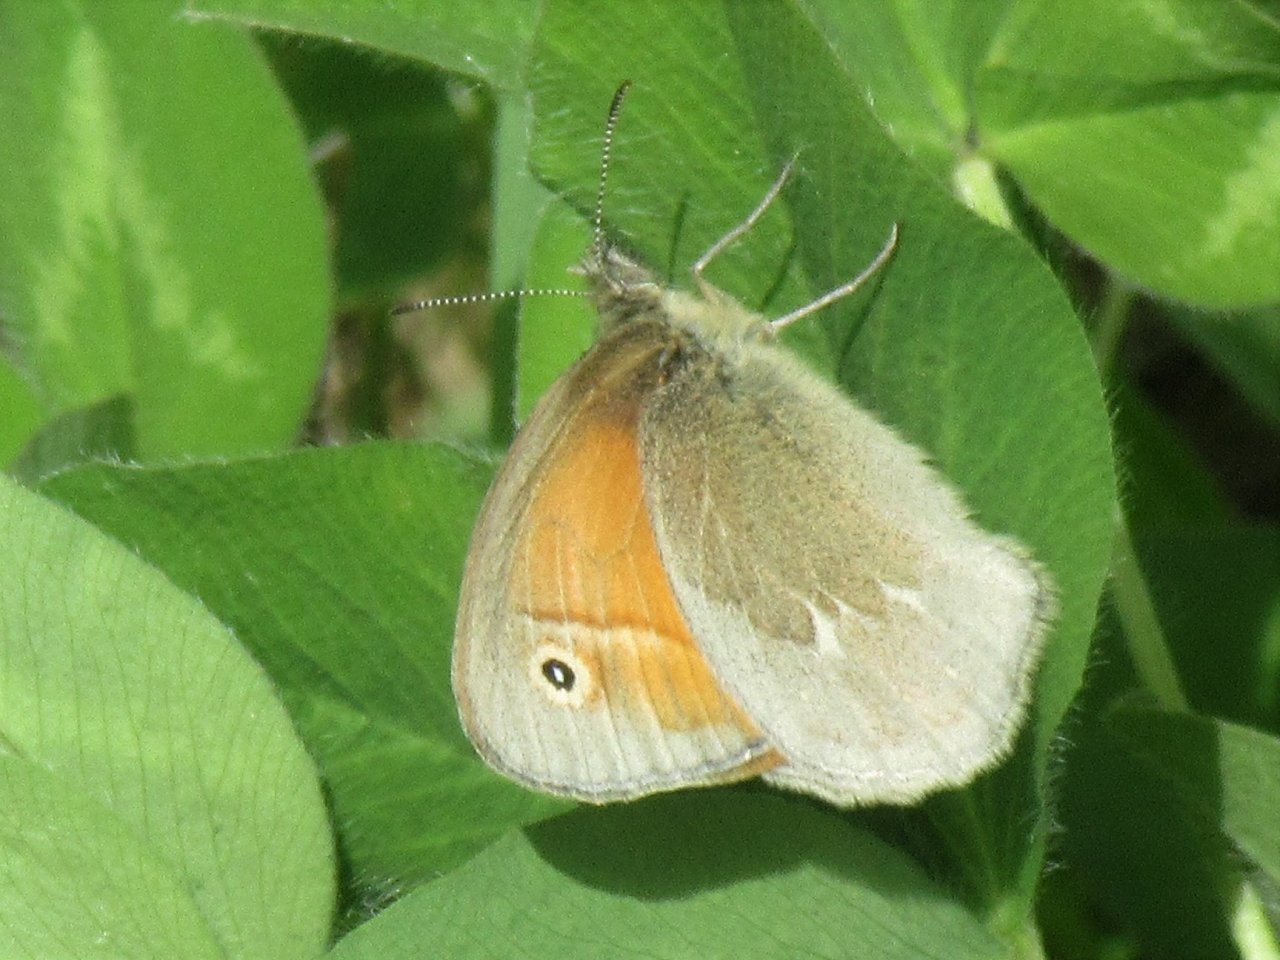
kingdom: Animalia
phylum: Arthropoda
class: Insecta
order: Lepidoptera
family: Nymphalidae
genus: Coenonympha
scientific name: Coenonympha tullia
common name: Large Heath
